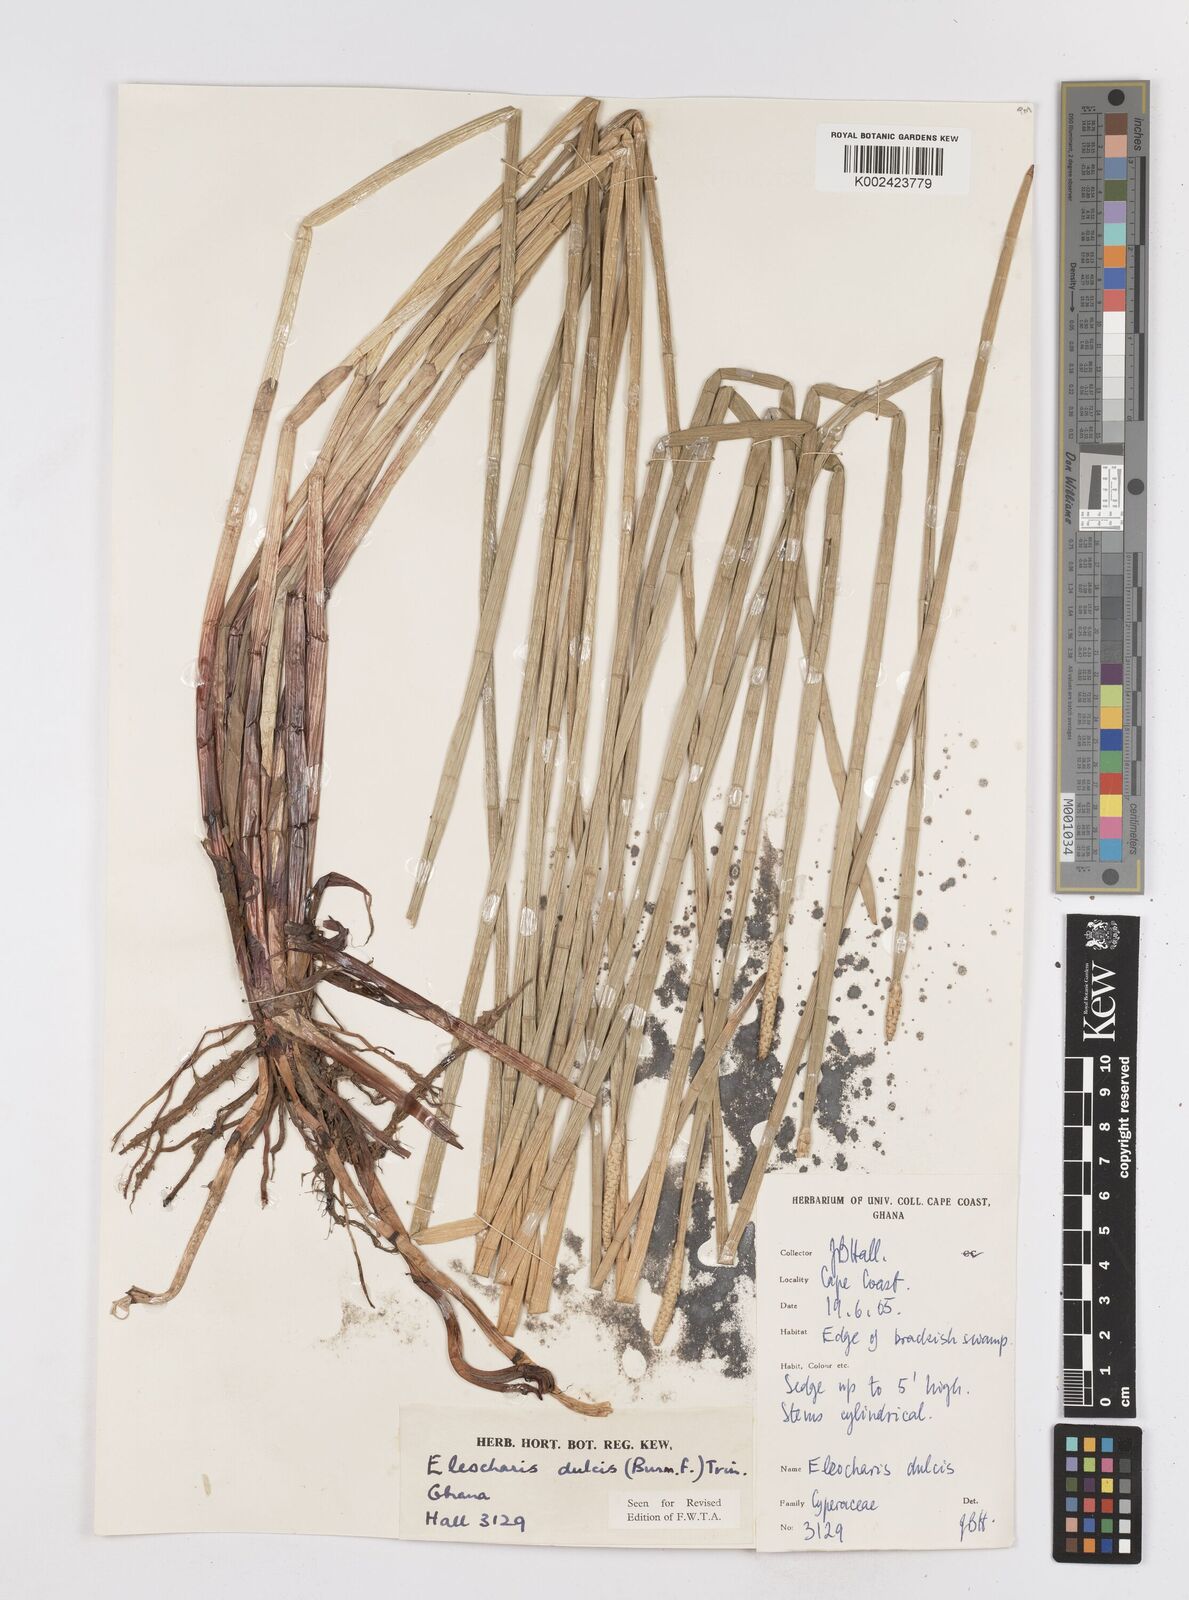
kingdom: Plantae
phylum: Tracheophyta
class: Liliopsida
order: Poales
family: Cyperaceae
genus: Eleocharis
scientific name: Eleocharis dulcis
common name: Chinese water chestnut
